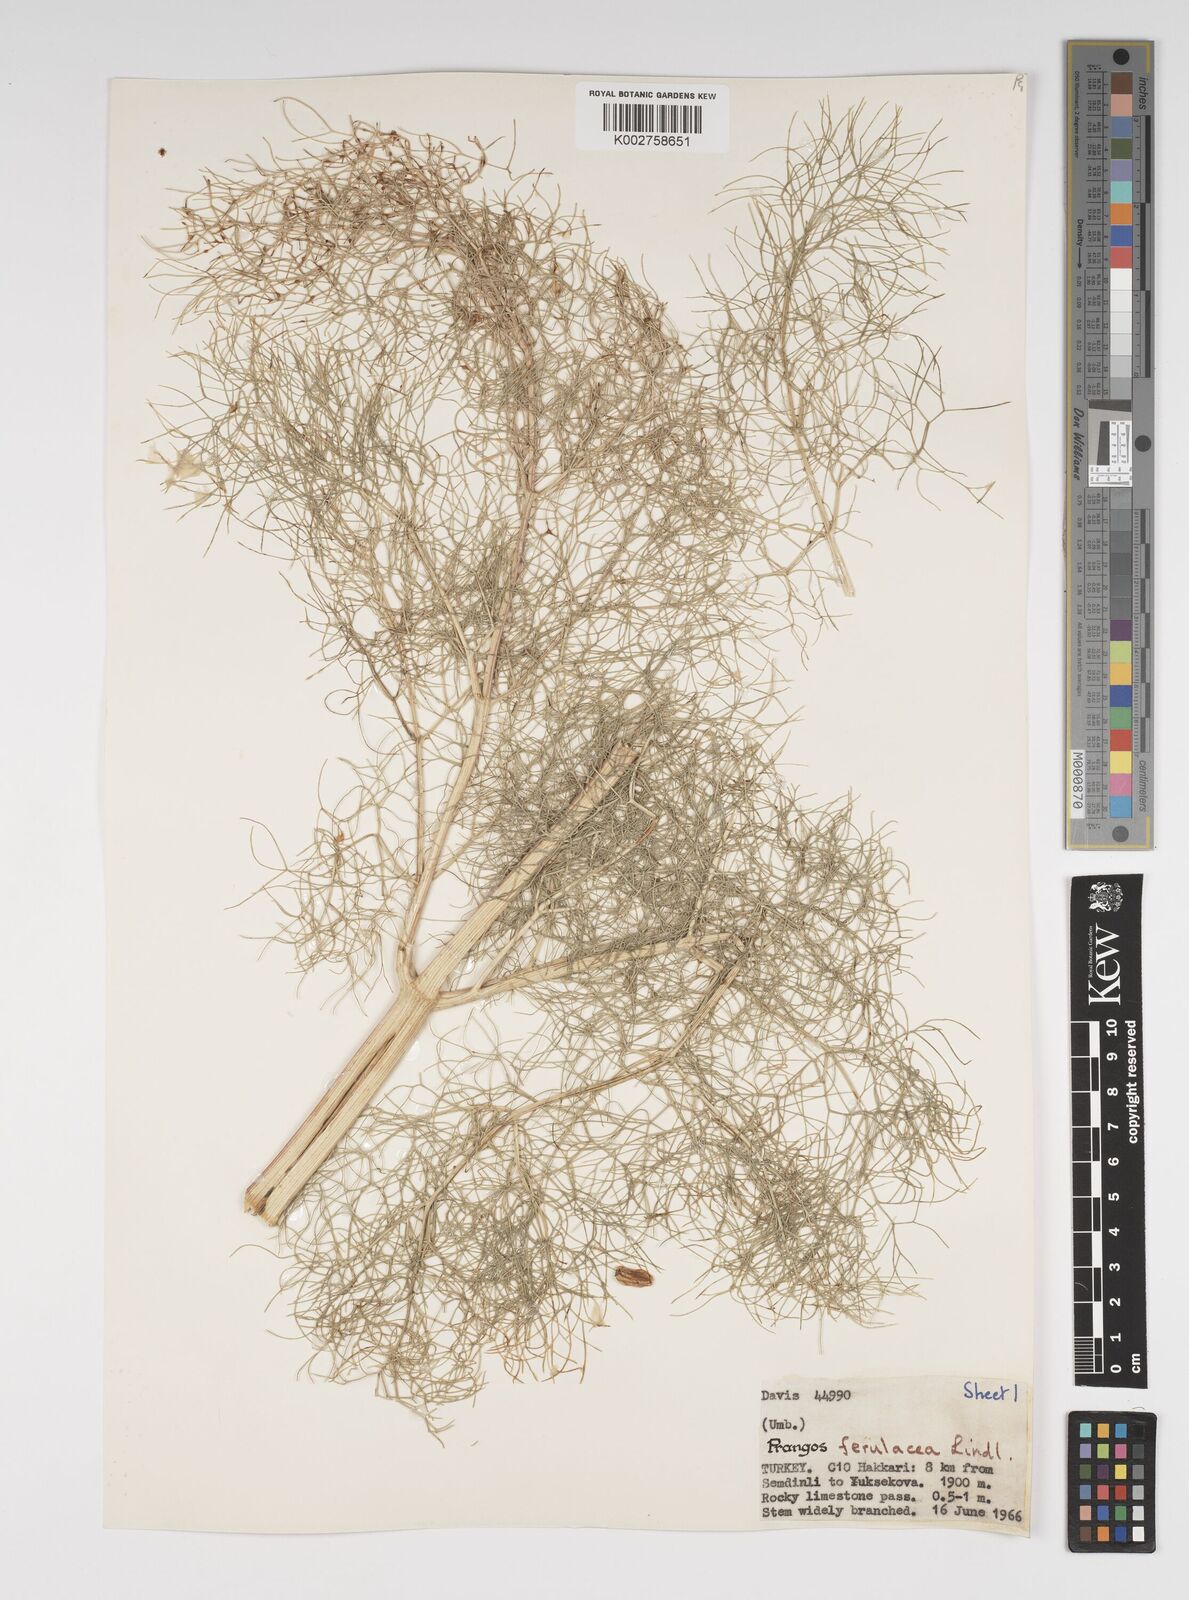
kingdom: Plantae
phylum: Tracheophyta
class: Magnoliopsida
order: Apiales
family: Apiaceae
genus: Prangos
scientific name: Prangos ferulacea
